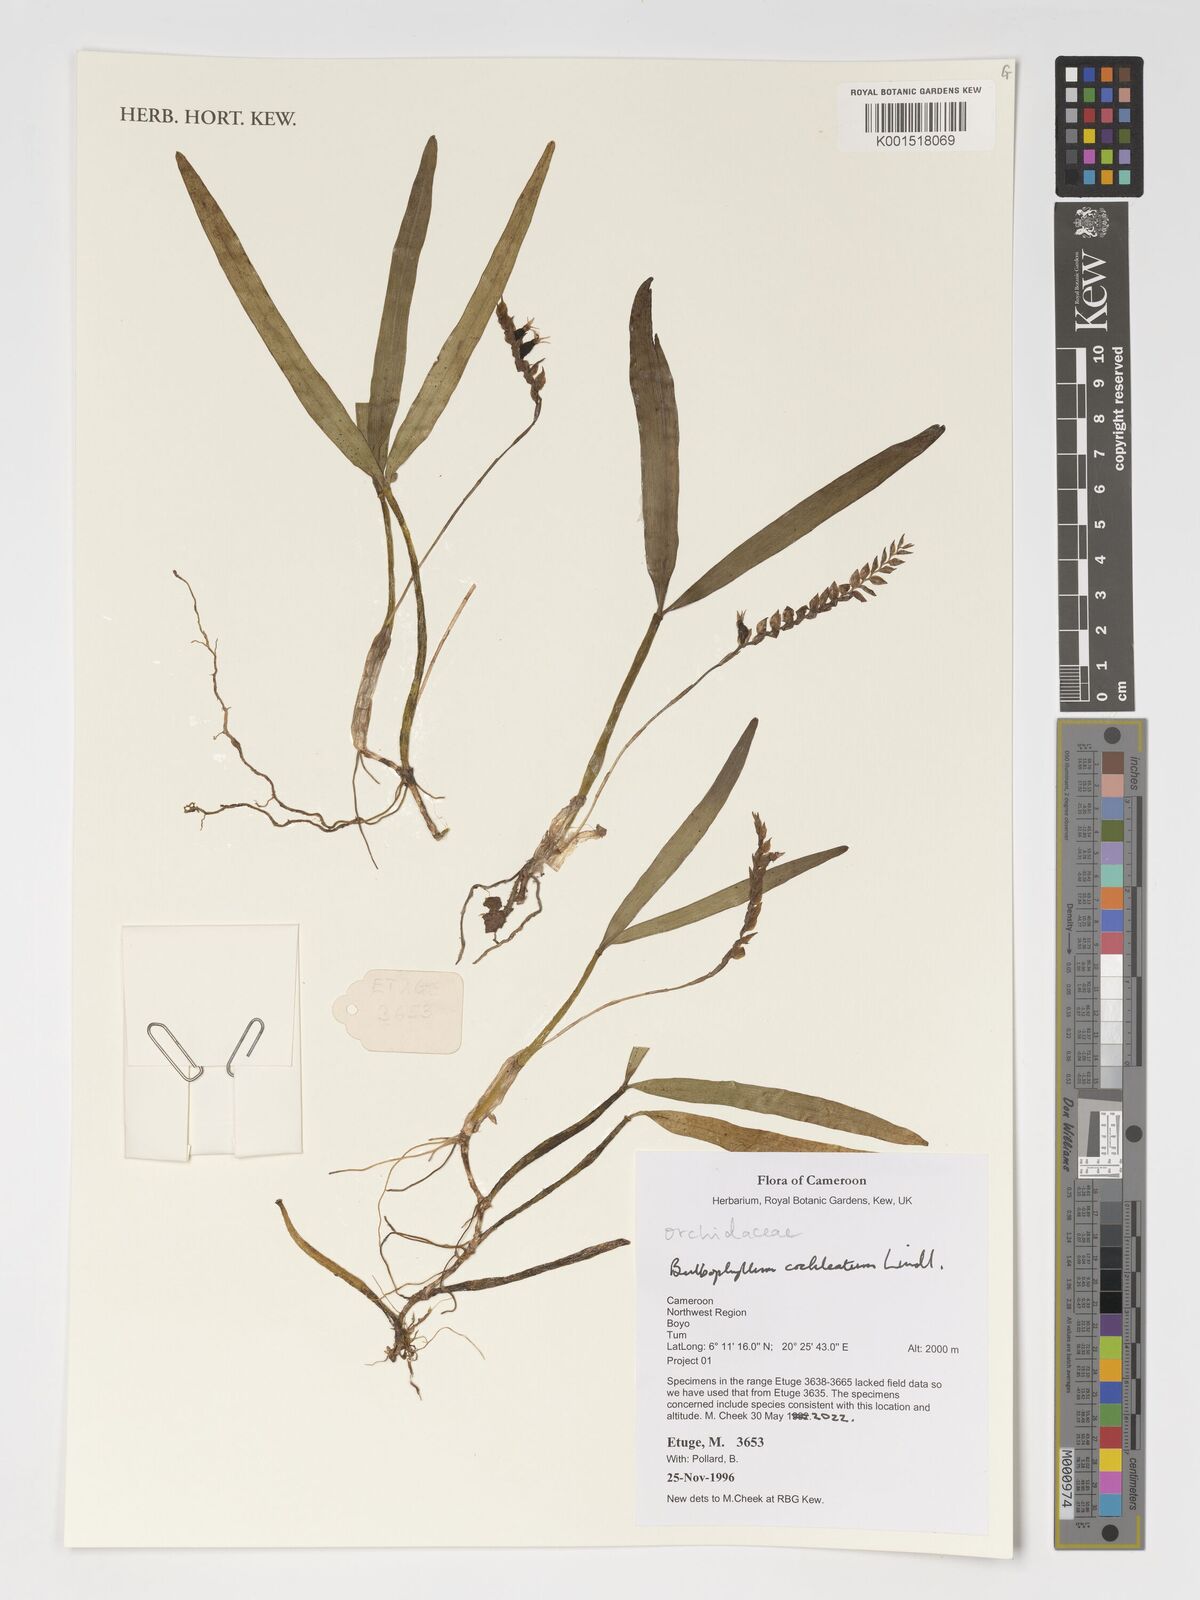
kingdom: Plantae
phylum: Tracheophyta
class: Liliopsida
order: Asparagales
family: Orchidaceae
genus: Bulbophyllum
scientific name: Bulbophyllum cochleatum
